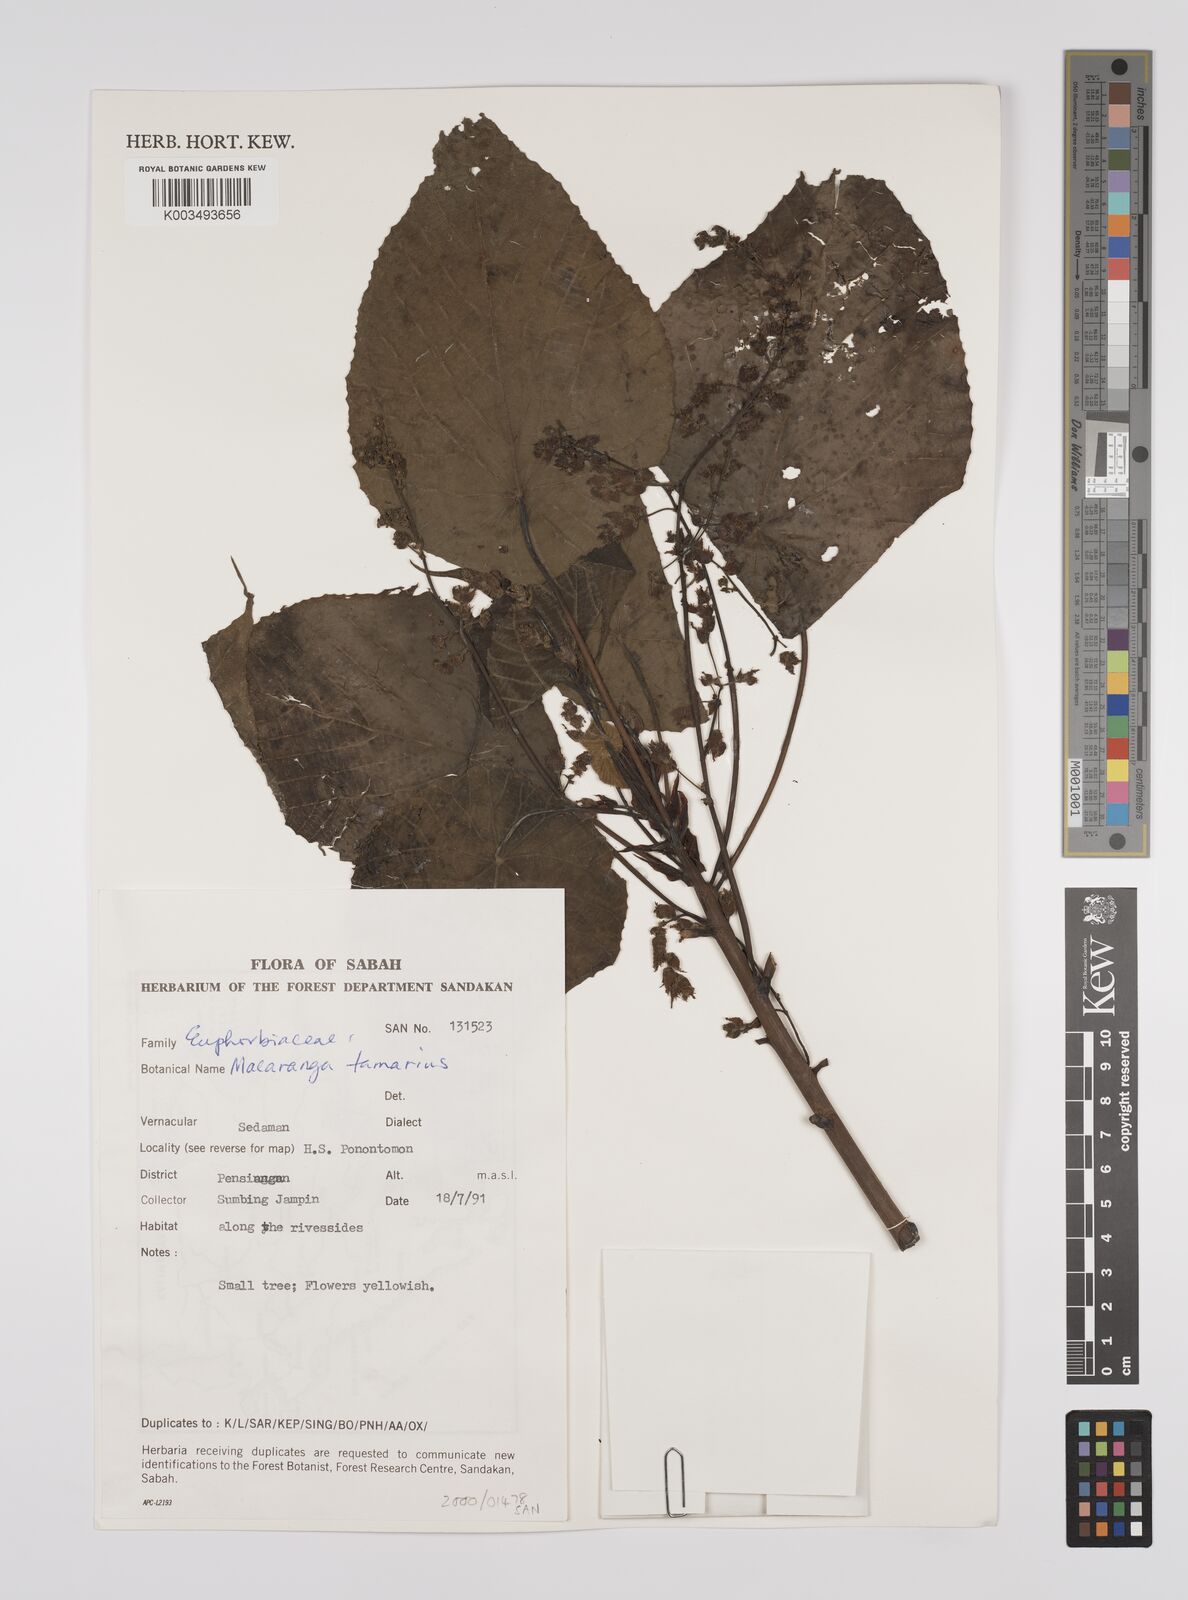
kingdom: Plantae
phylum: Tracheophyta
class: Magnoliopsida
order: Malpighiales
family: Euphorbiaceae
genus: Macaranga
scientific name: Macaranga tanarius
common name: Parasol leaf tree
